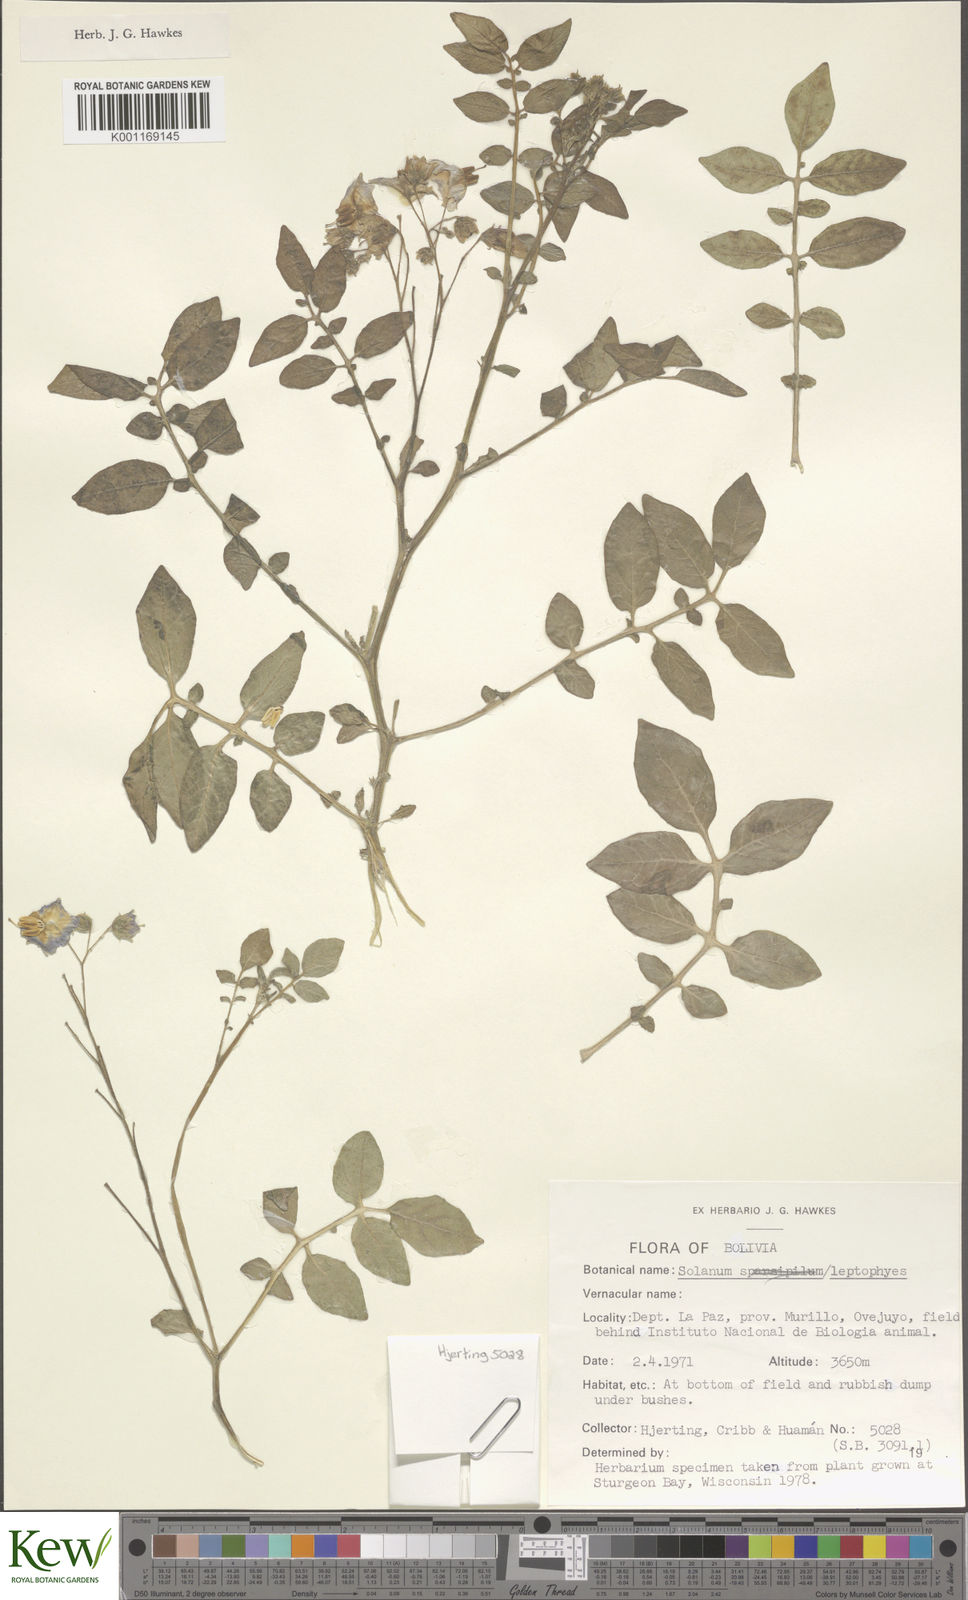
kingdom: Plantae
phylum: Tracheophyta
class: Magnoliopsida
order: Solanales
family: Solanaceae
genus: Solanum
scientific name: Solanum brevicaule
